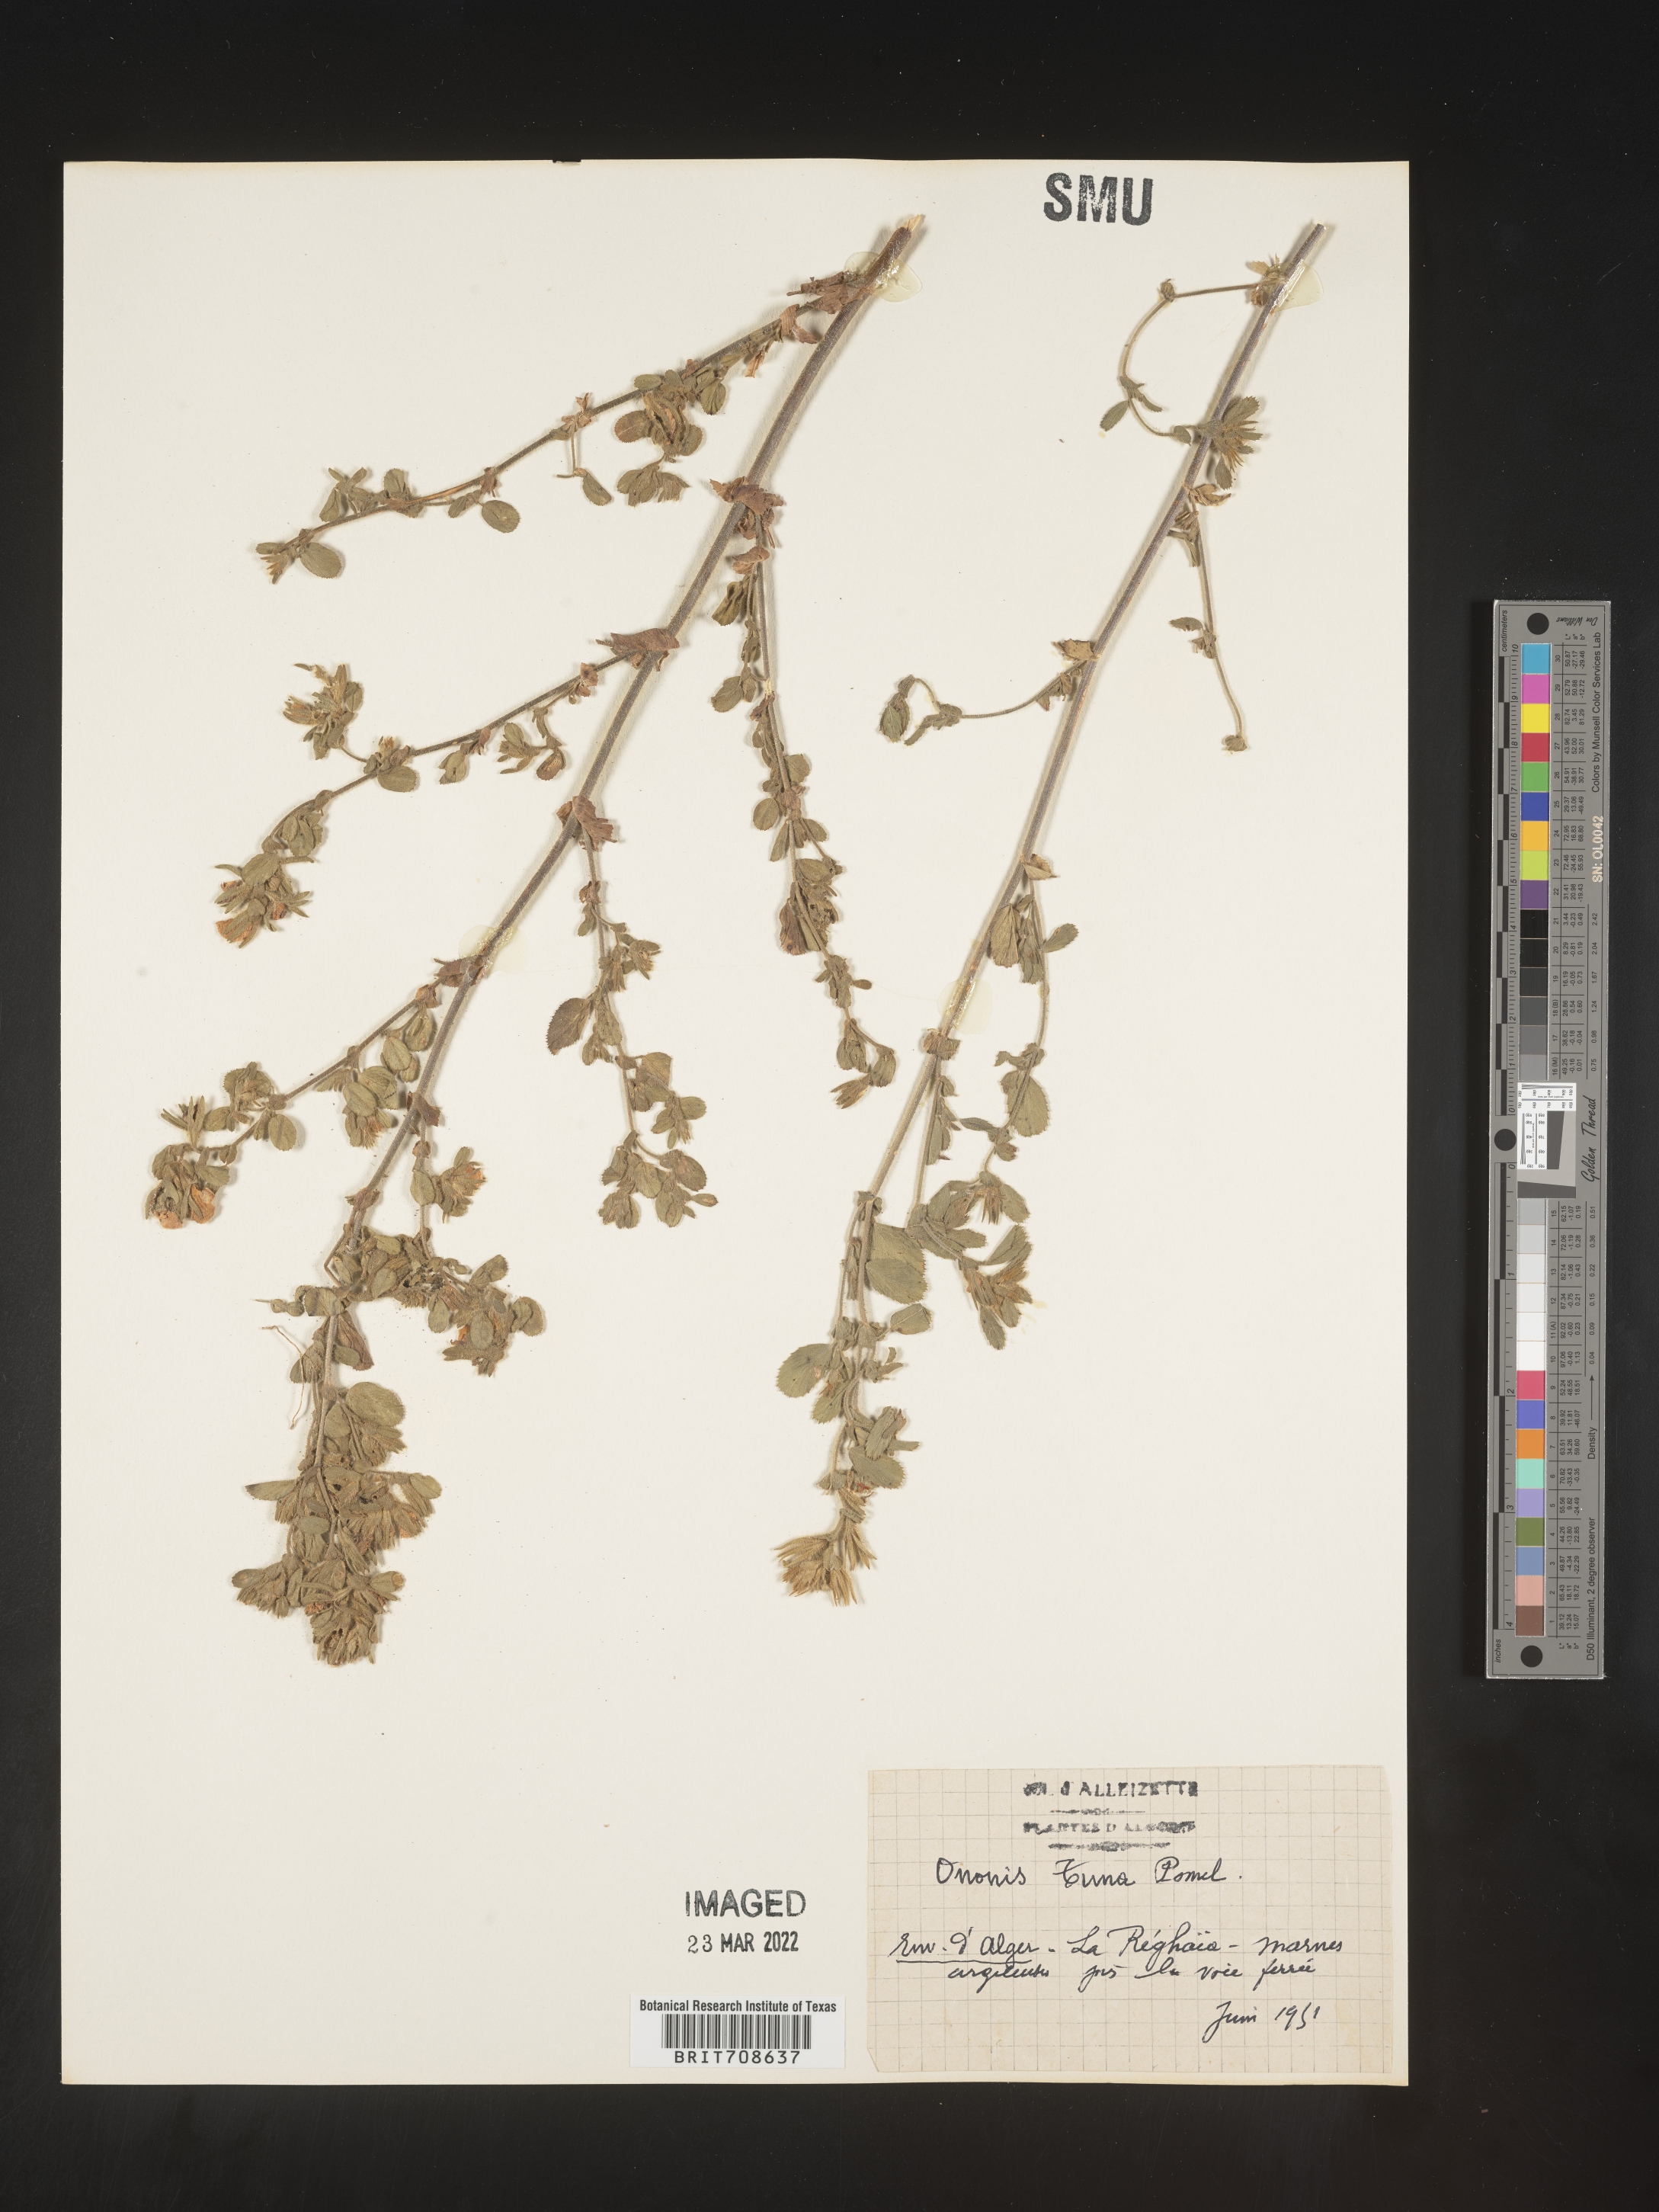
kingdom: Plantae
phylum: Tracheophyta
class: Magnoliopsida
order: Fabales
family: Fabaceae
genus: Ononis
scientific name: Ononis
